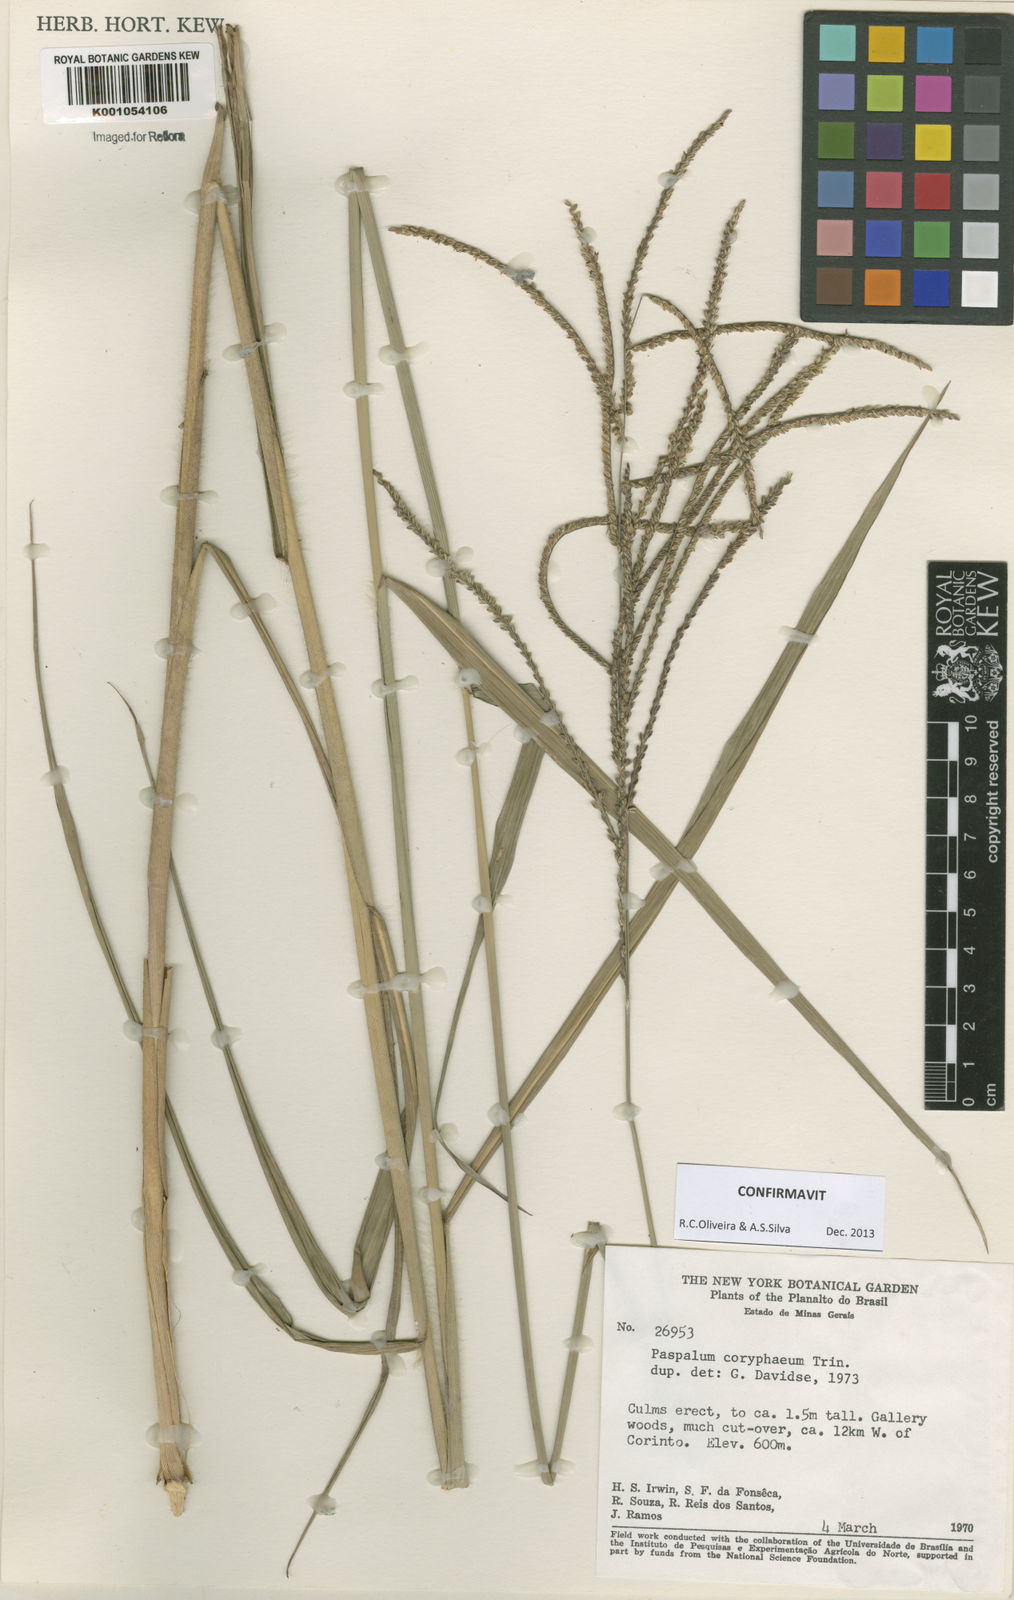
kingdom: Plantae
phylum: Tracheophyta
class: Liliopsida
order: Poales
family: Poaceae
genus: Paspalum
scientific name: Paspalum coryphaeum
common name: Emperor crowngrass
